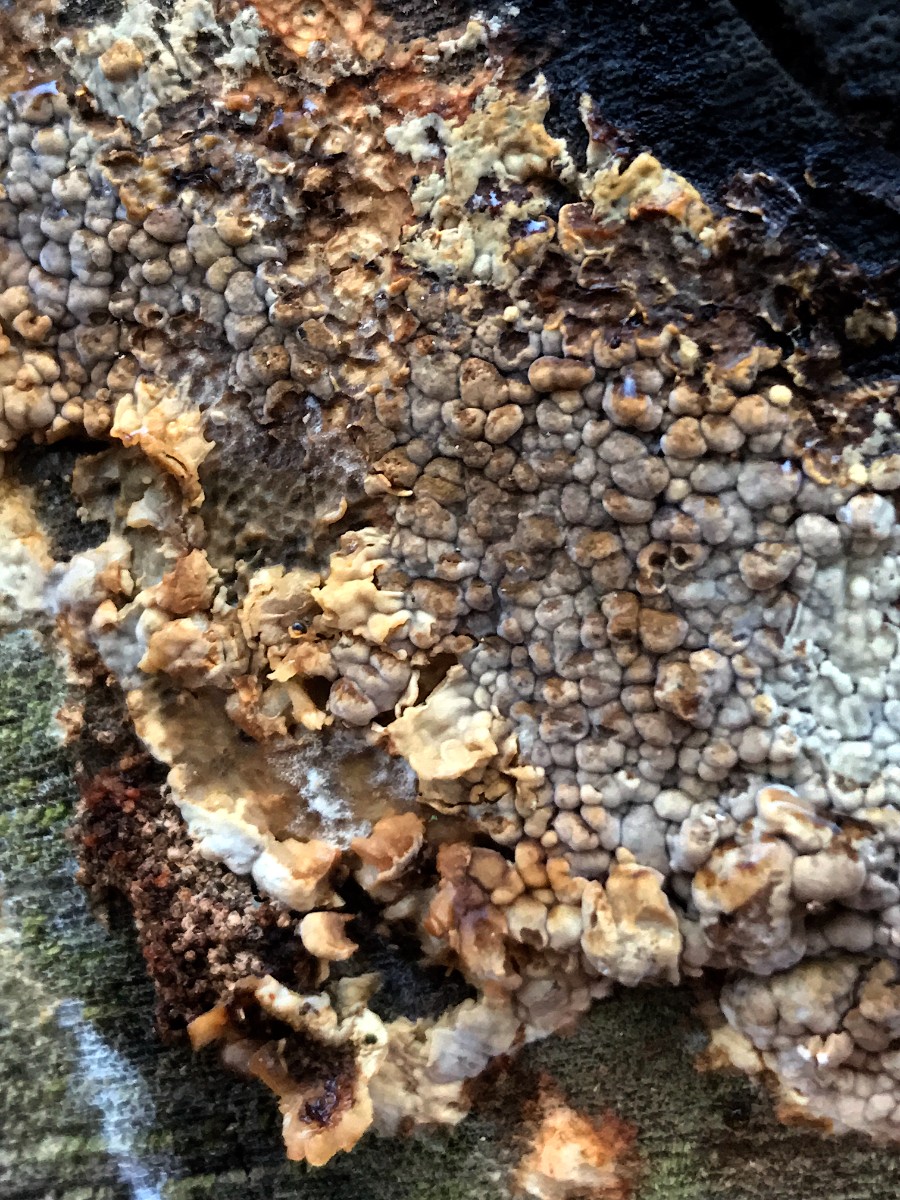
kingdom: Fungi
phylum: Basidiomycota
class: Agaricomycetes
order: Boletales
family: Coniophoraceae
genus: Coniophora
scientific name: Coniophora puteana
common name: gul tømmersvamp
